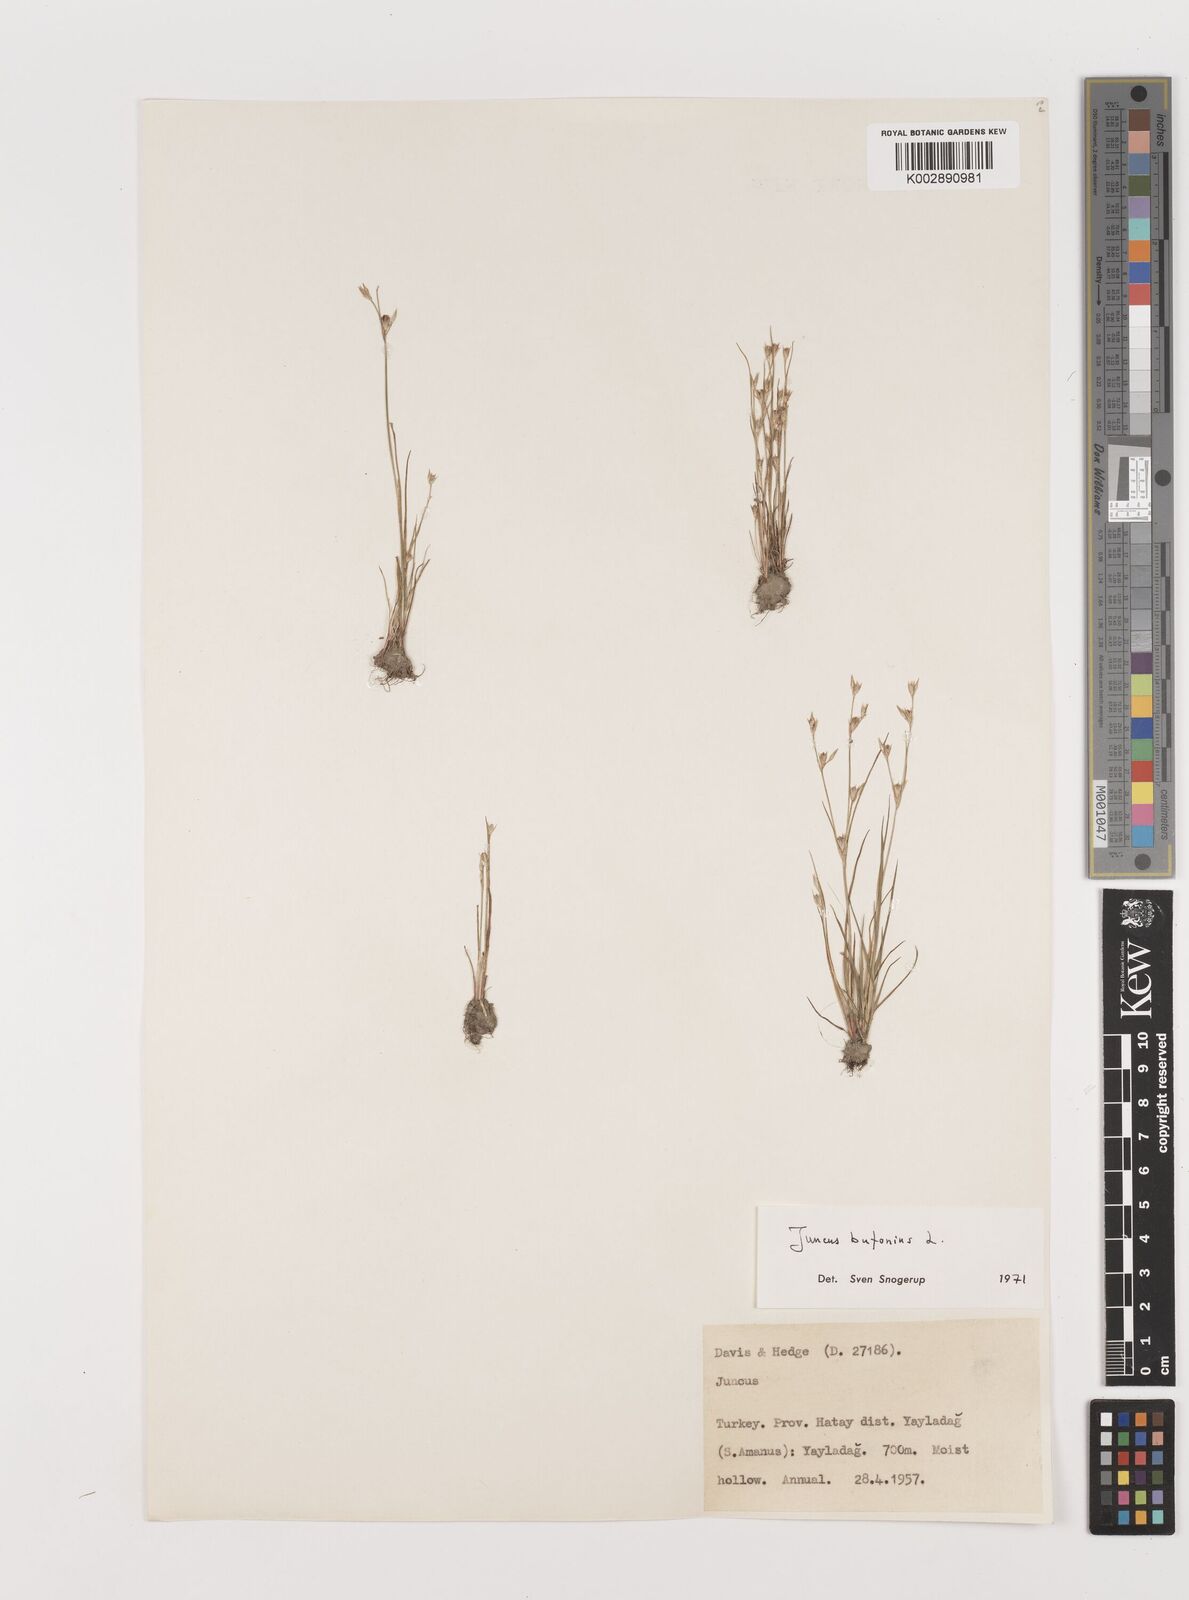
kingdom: Plantae
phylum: Tracheophyta
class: Liliopsida
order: Poales
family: Juncaceae
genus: Juncus
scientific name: Juncus bufonius
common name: Toad rush
